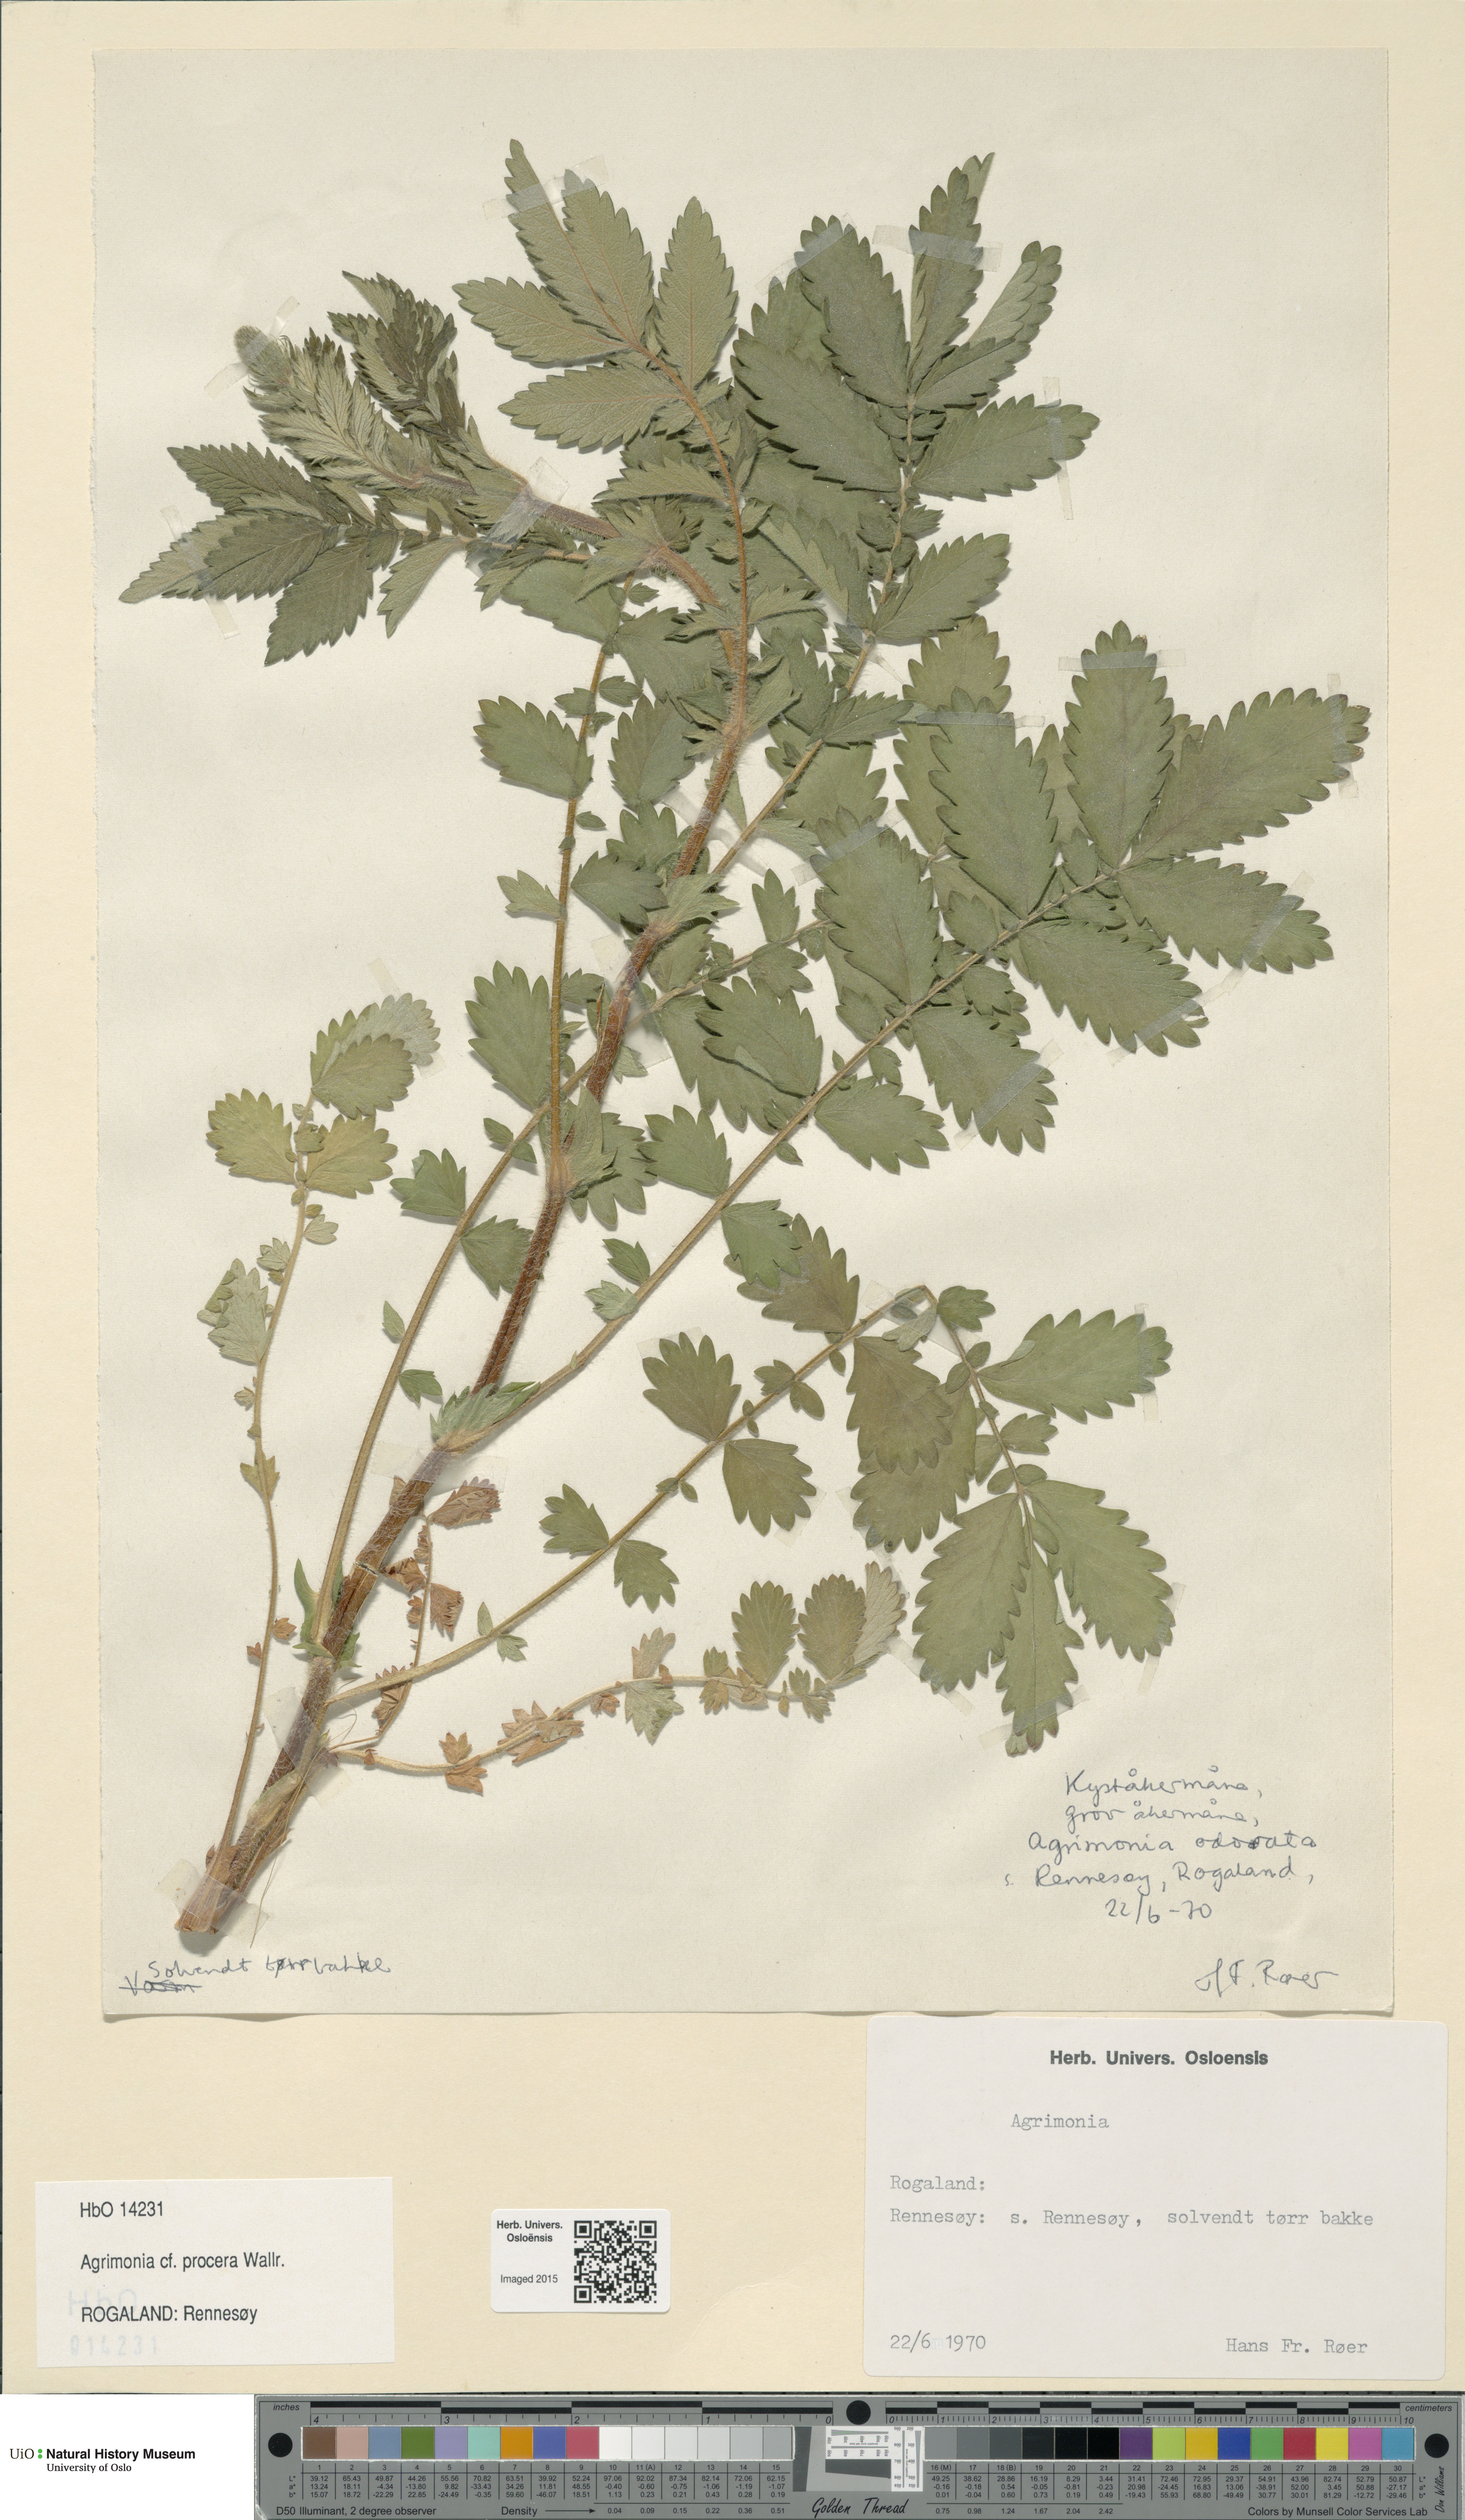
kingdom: Plantae
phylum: Tracheophyta
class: Magnoliopsida
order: Rosales
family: Rosaceae
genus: Agrimonia
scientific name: Agrimonia procera
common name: Fragrant agrimony
